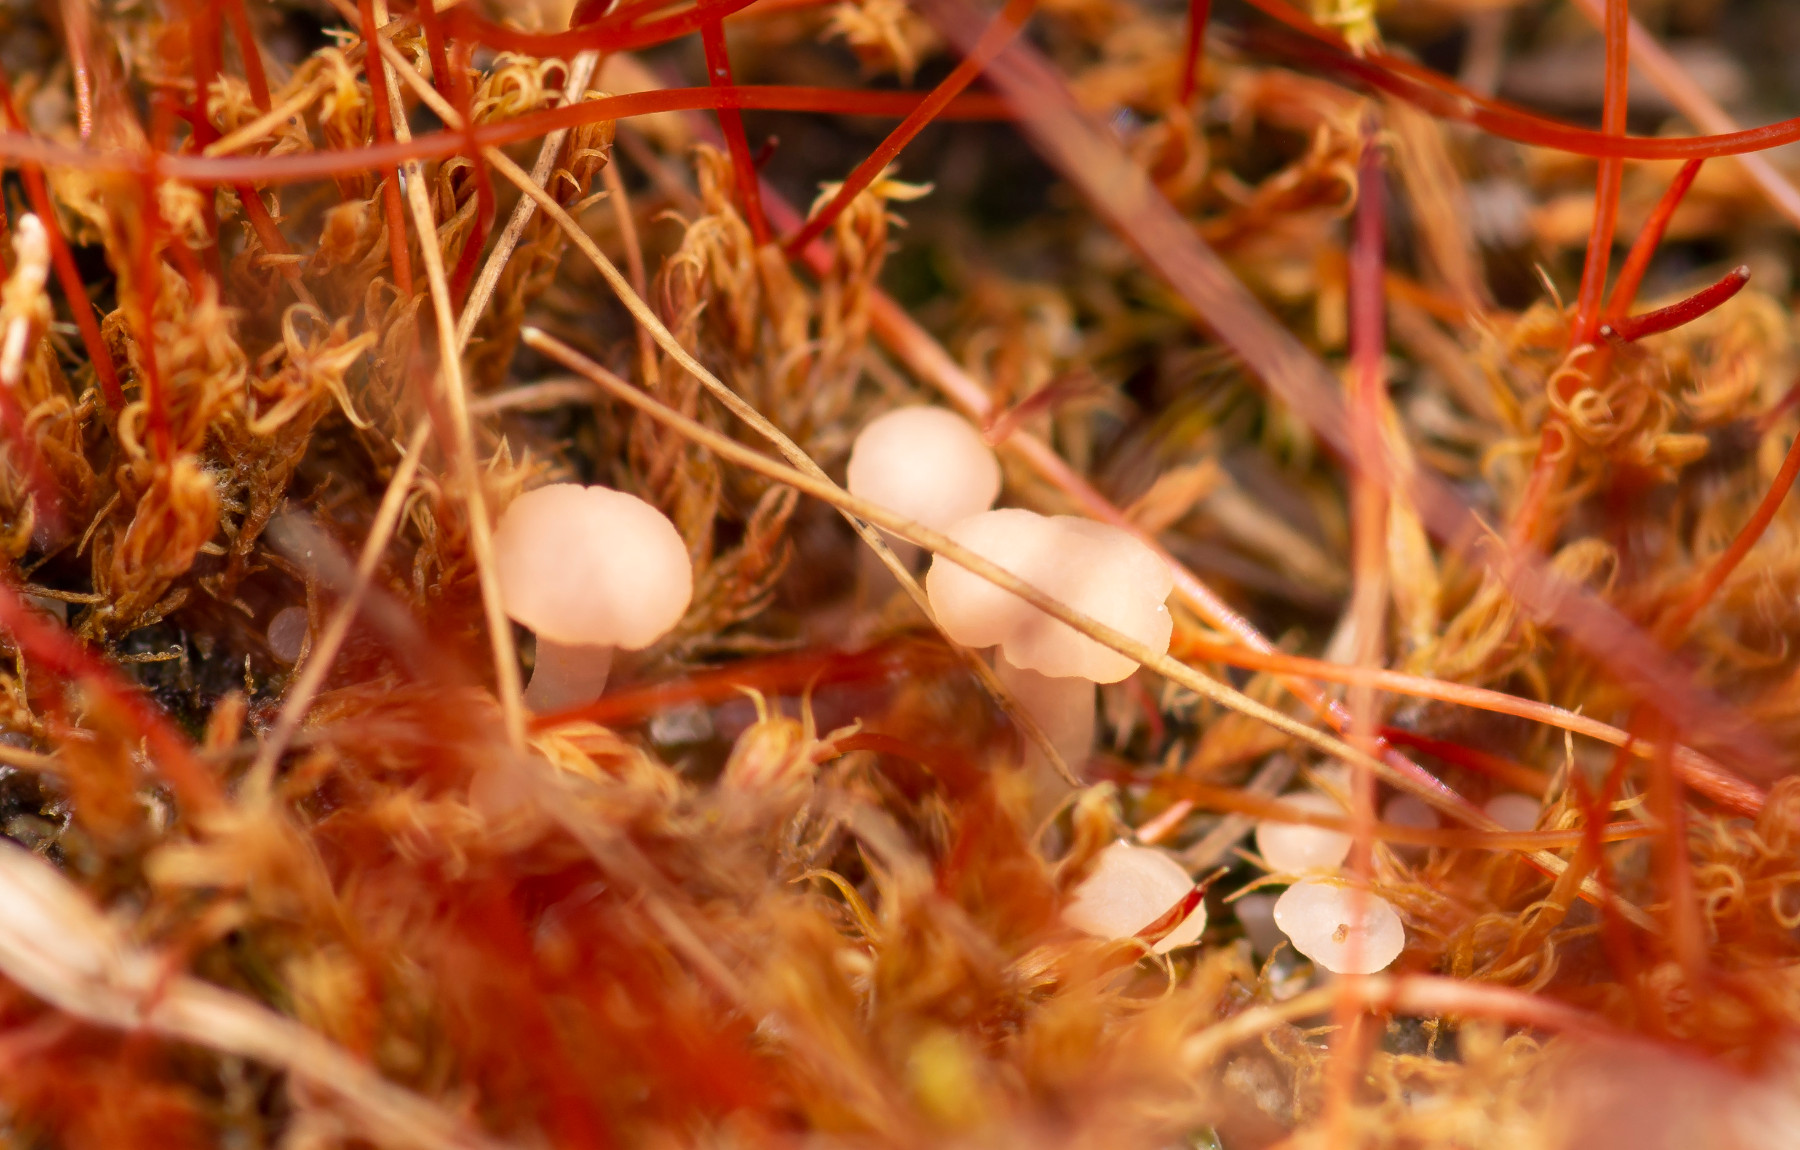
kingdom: Fungi
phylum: Ascomycota
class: Leotiomycetes
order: Helotiales
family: Hyaloscyphaceae
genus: Roseodiscus
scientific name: Roseodiscus formosus
